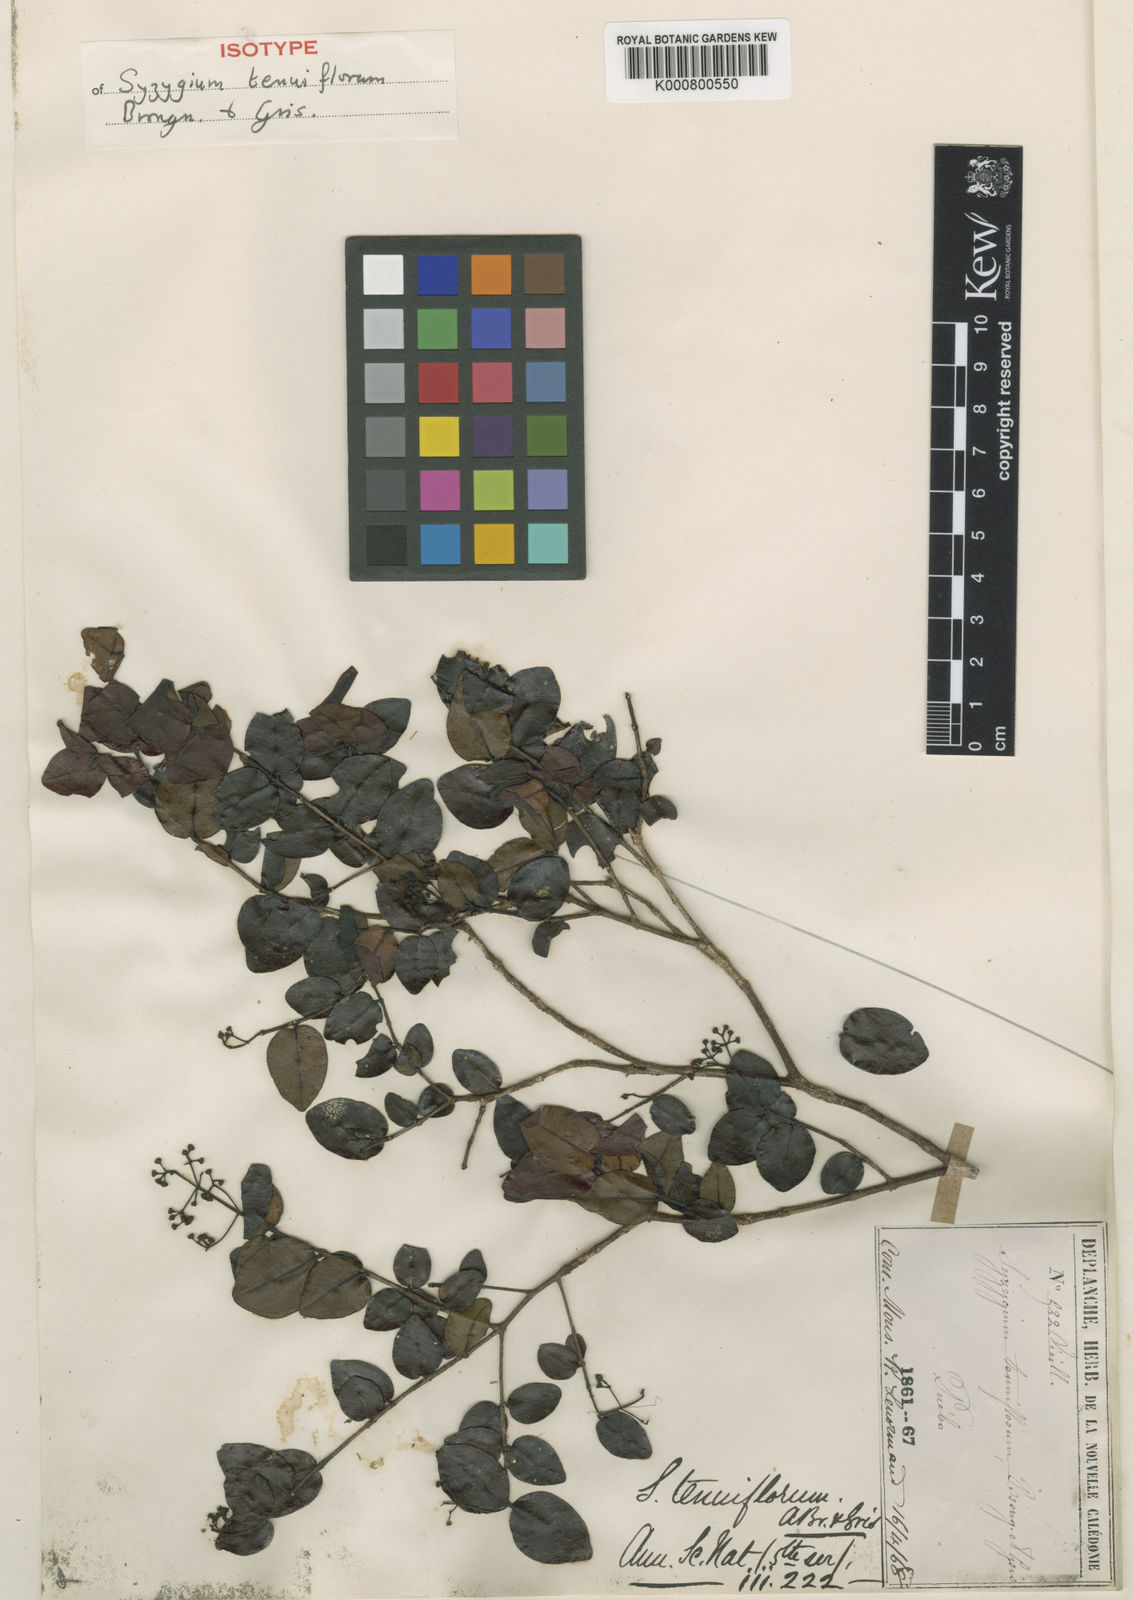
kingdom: Plantae
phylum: Tracheophyta
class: Magnoliopsida
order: Myrtales
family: Myrtaceae
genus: Syzygium
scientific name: Syzygium tenuiflorum
